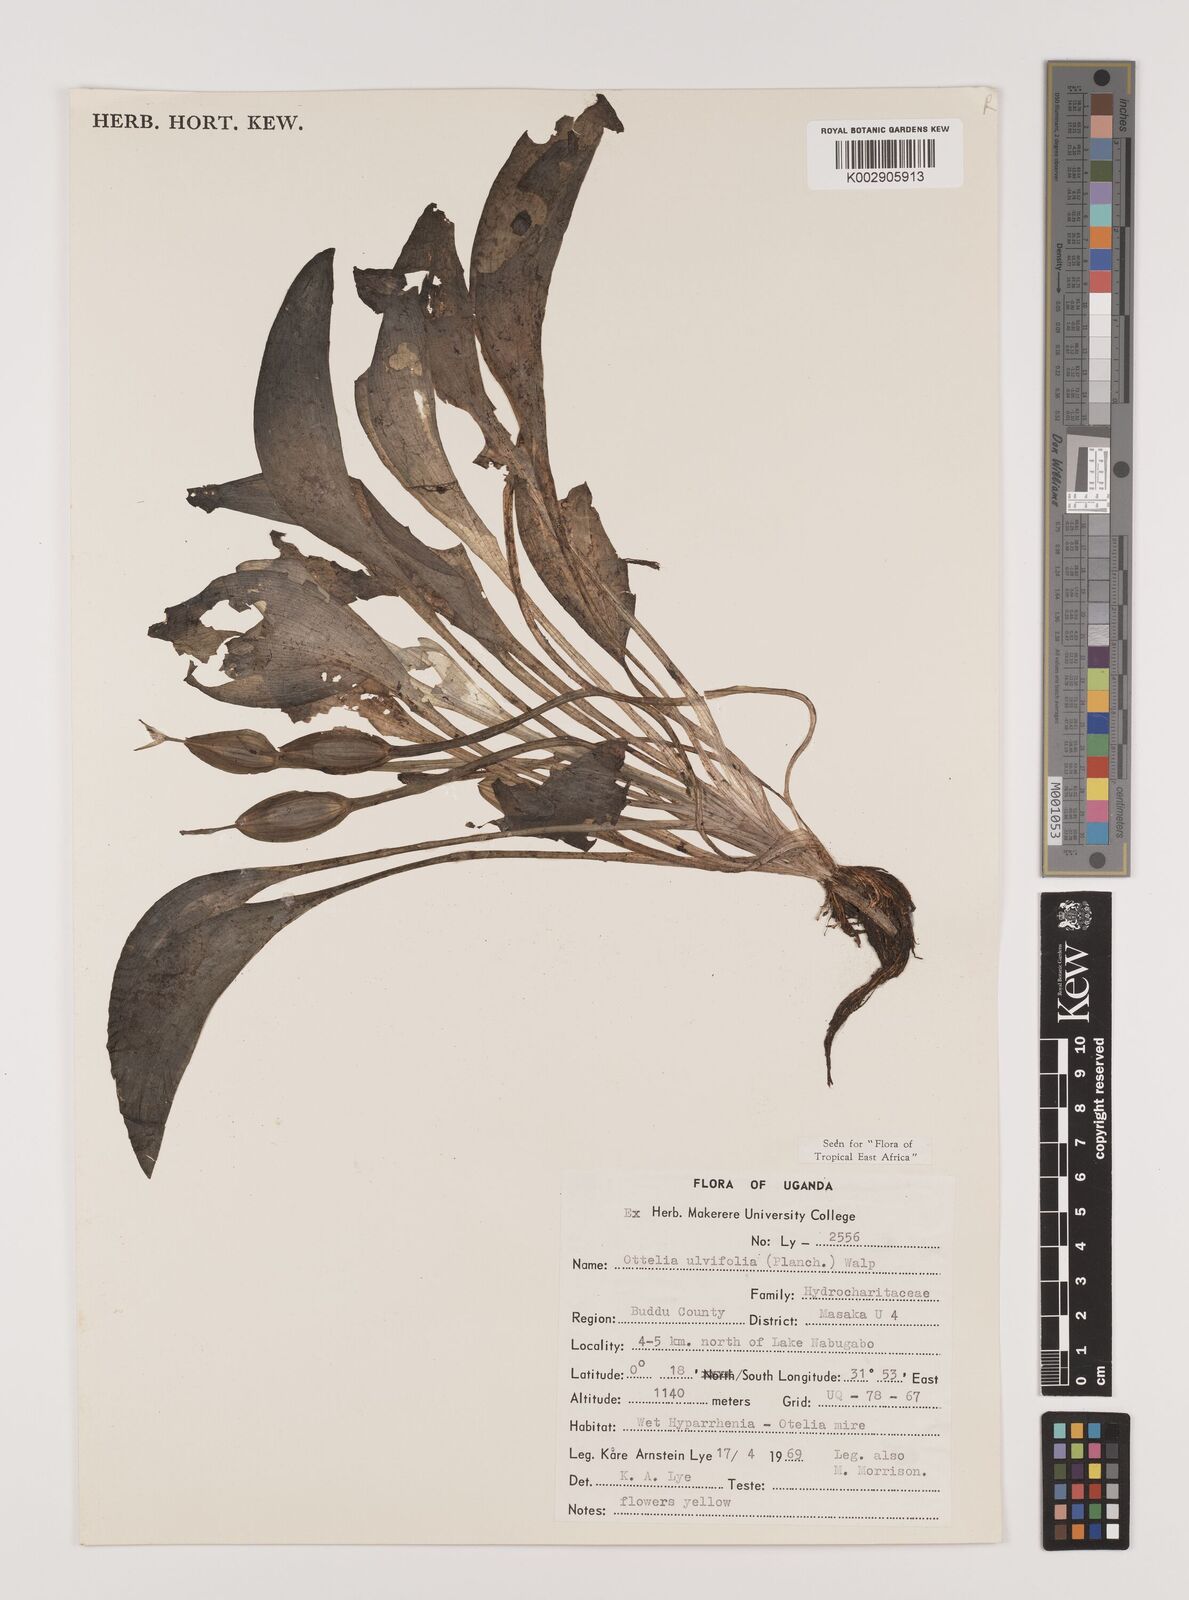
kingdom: Plantae
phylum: Tracheophyta
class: Liliopsida
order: Alismatales
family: Hydrocharitaceae
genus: Ottelia
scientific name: Ottelia ulvifolia
